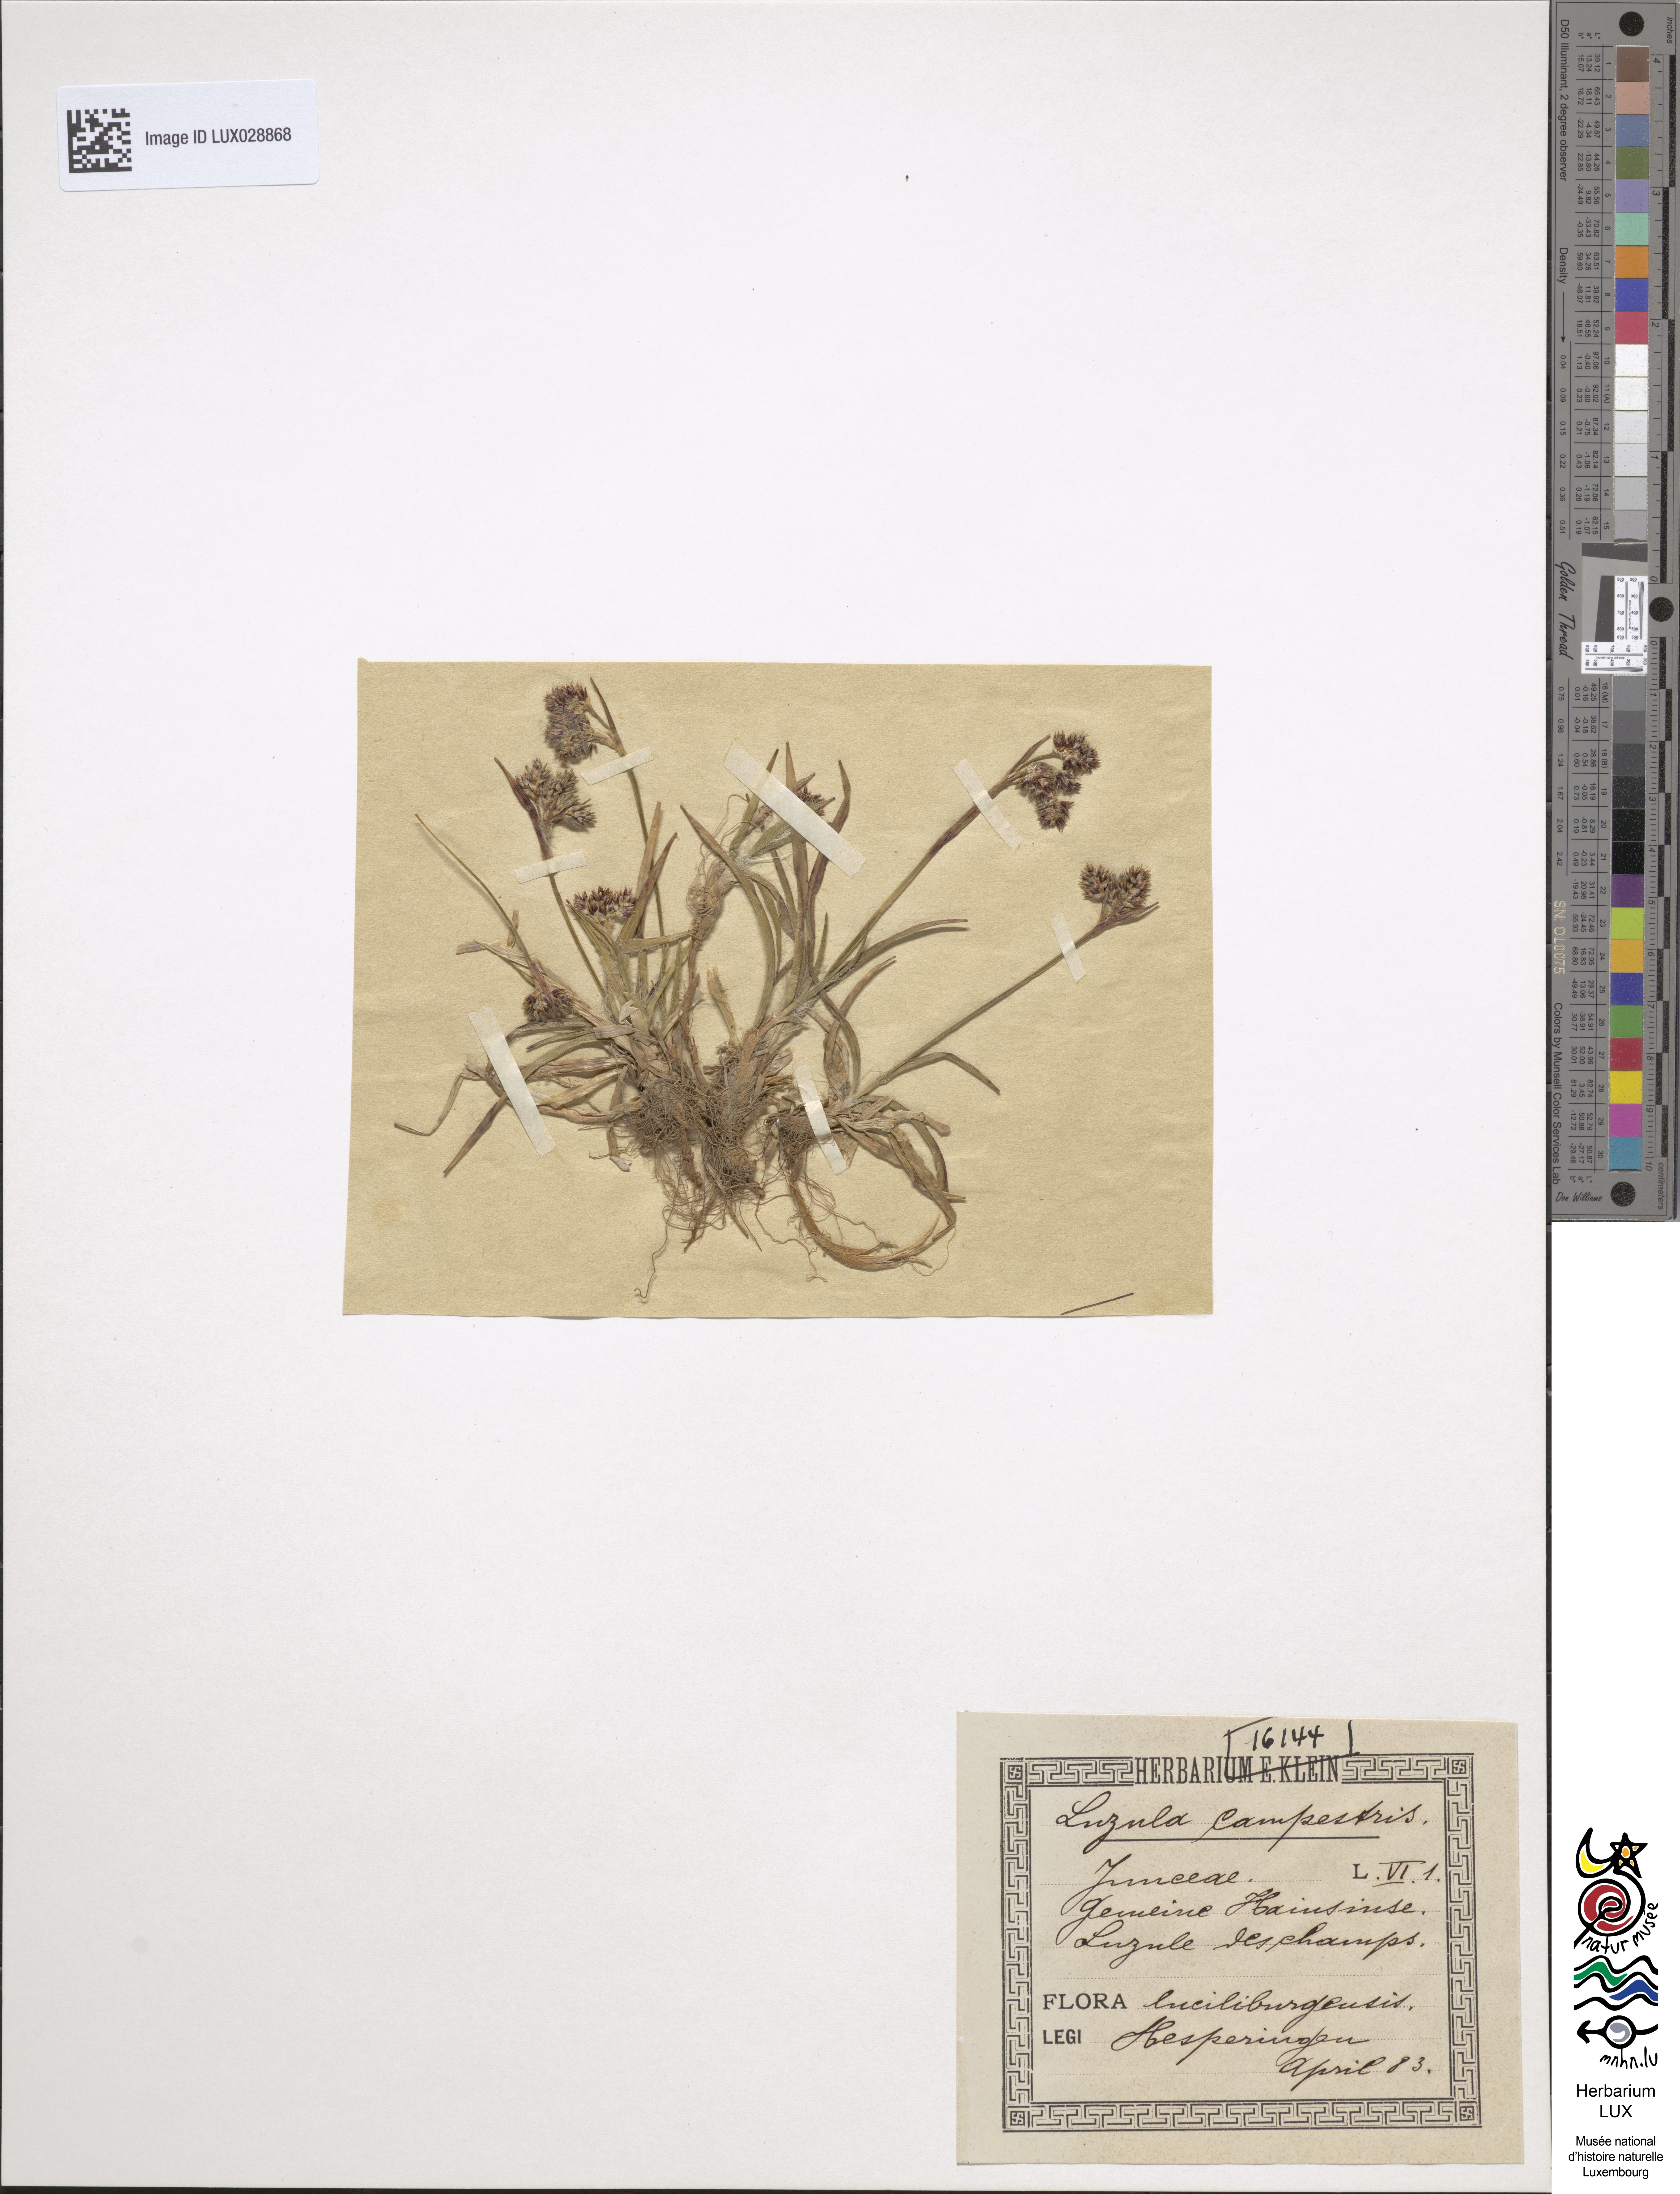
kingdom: Plantae
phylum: Tracheophyta
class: Liliopsida
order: Poales
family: Juncaceae
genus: Luzula
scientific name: Luzula campestris
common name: Field wood-rush
